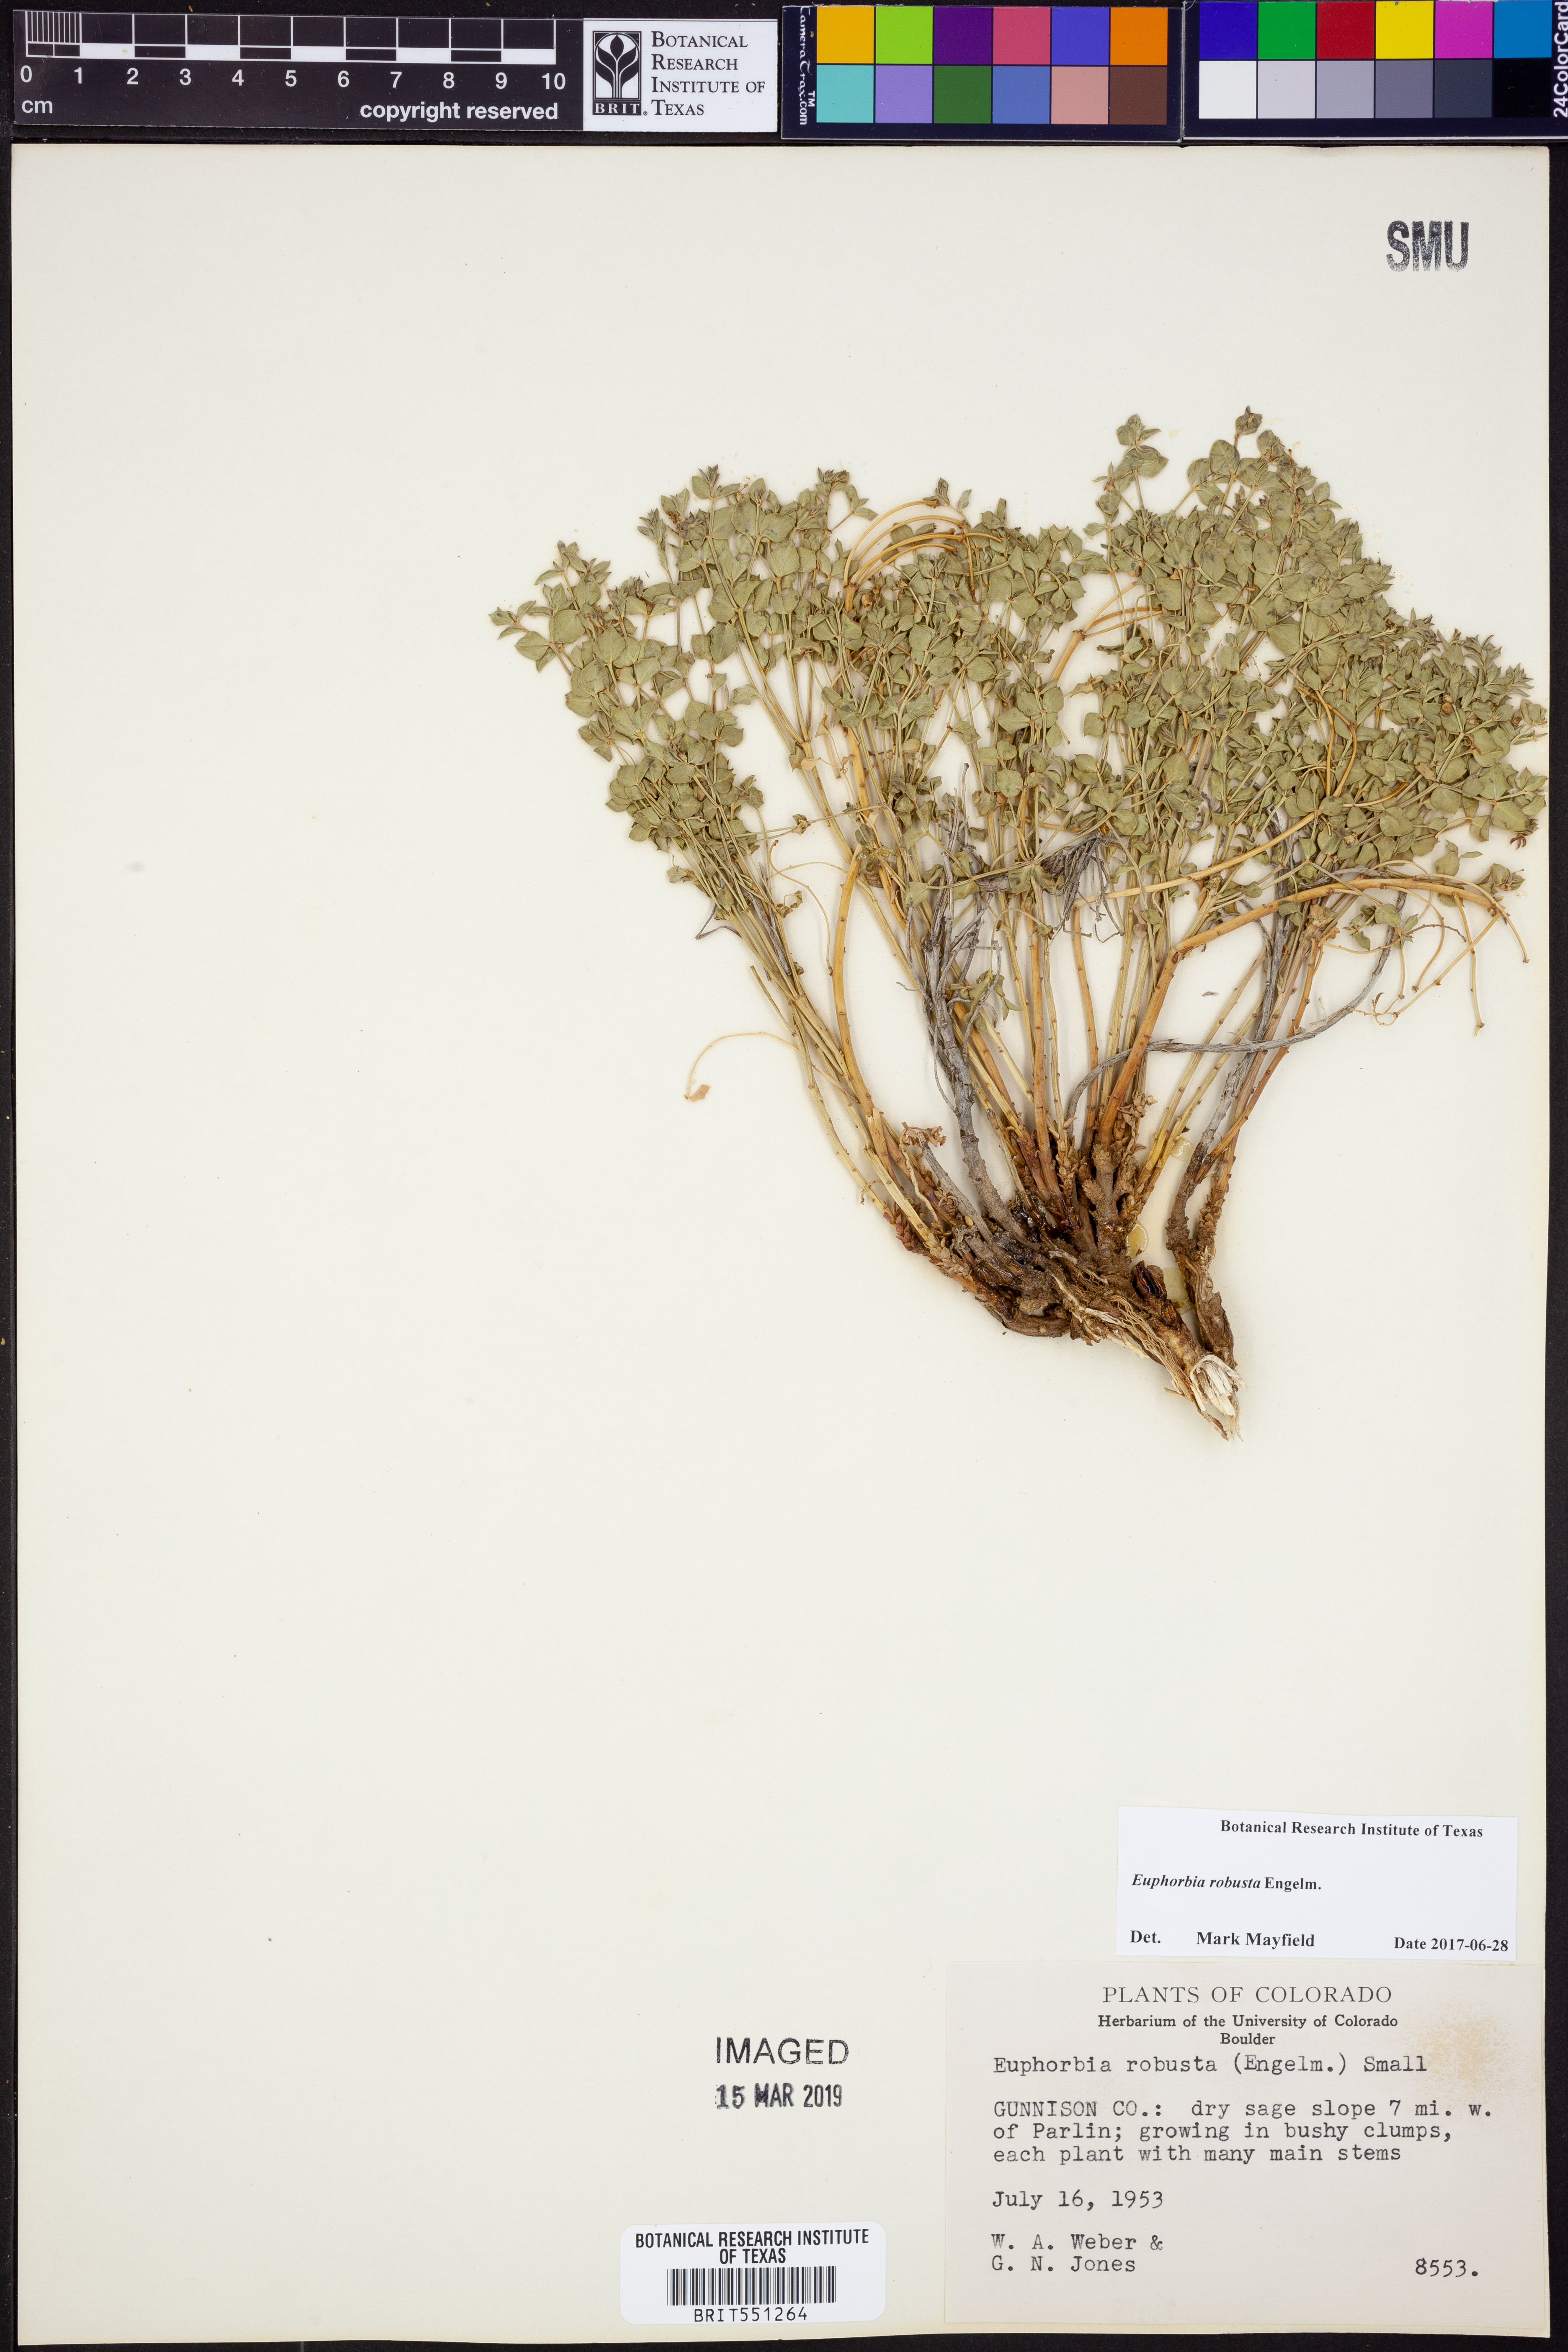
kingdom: Plantae
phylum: Tracheophyta
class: Magnoliopsida
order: Malpighiales
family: Euphorbiaceae
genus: Euphorbia
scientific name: Euphorbia brachycera
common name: Shorthorn spurge
